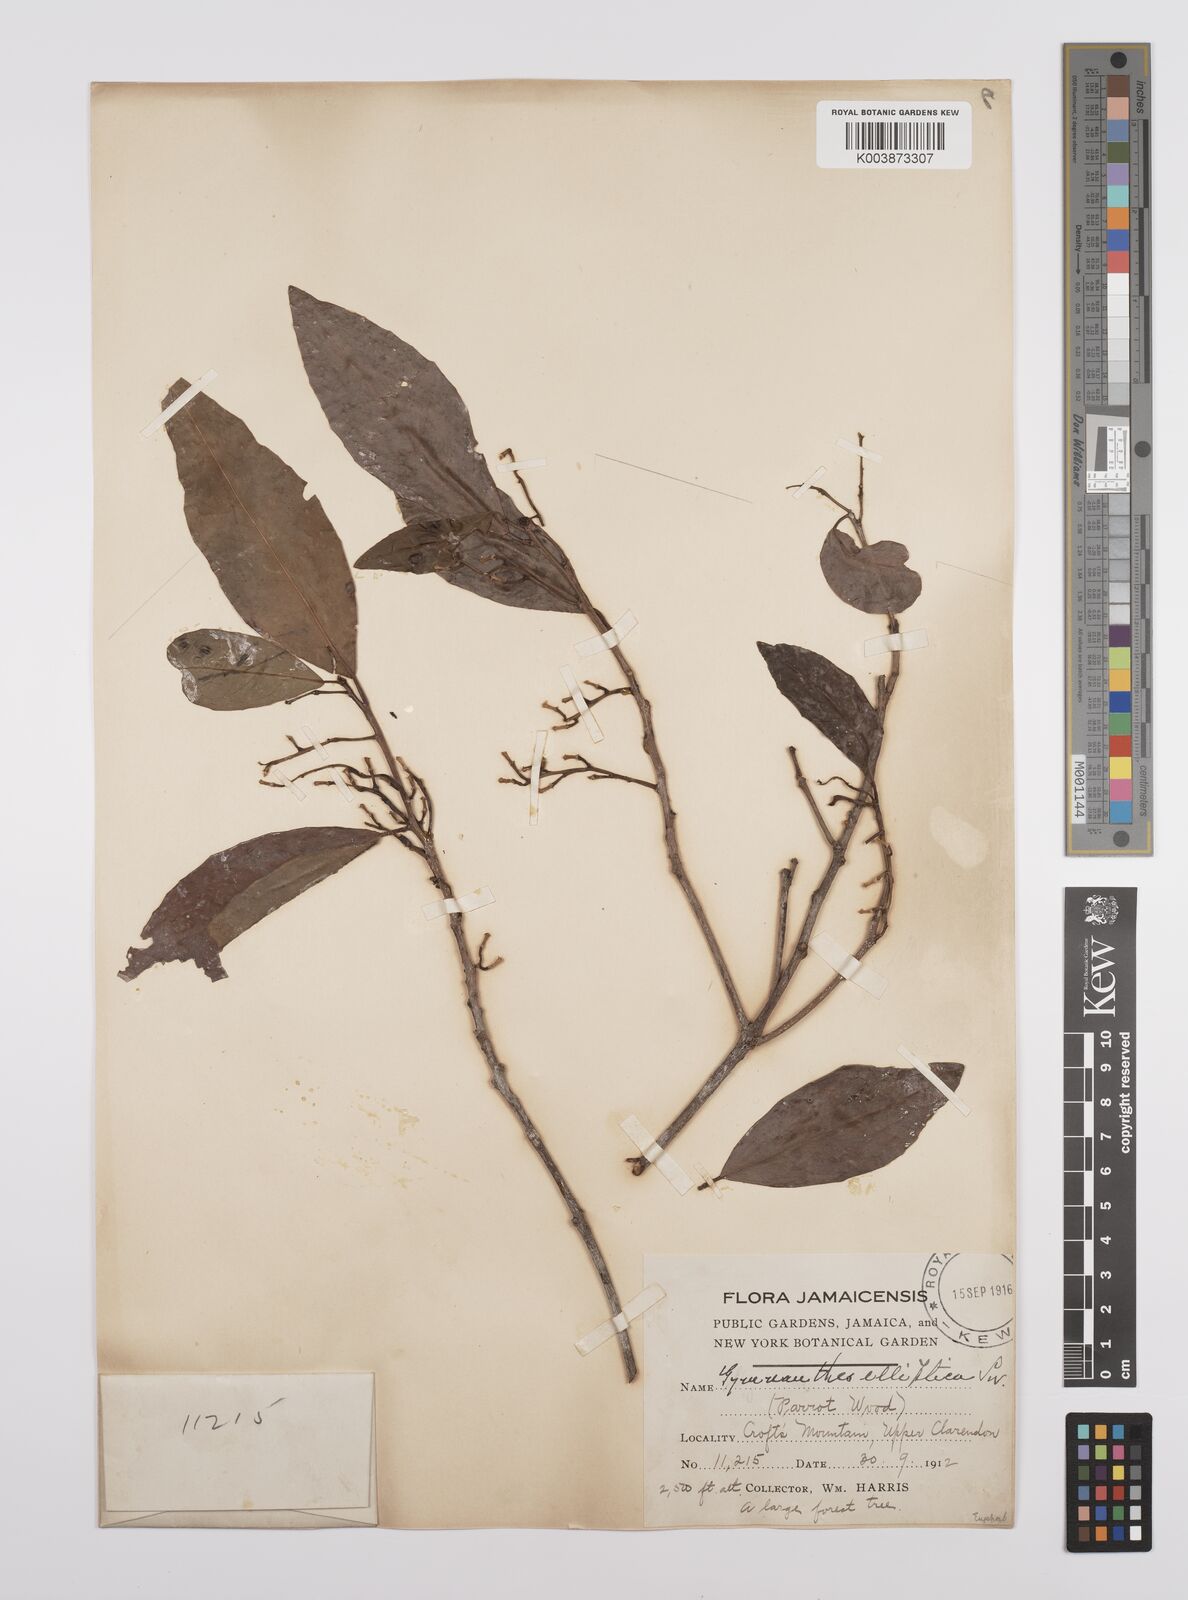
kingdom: Plantae
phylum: Tracheophyta
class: Magnoliopsida
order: Malpighiales
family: Euphorbiaceae
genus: Dendrocousinsia
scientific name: Dendrocousinsia elliptica
